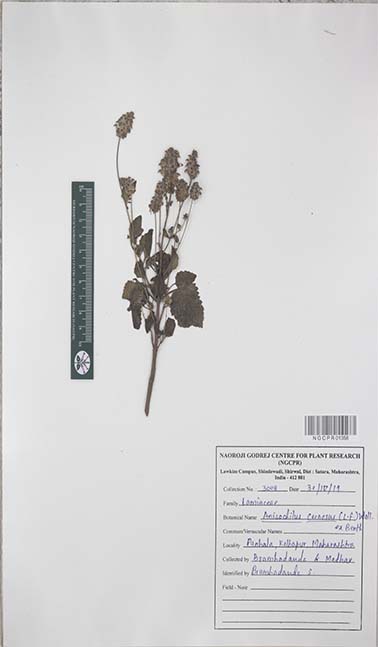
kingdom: Plantae
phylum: Tracheophyta
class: Magnoliopsida
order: Lamiales
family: Lamiaceae
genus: Coleus
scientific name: Coleus strobilifer
